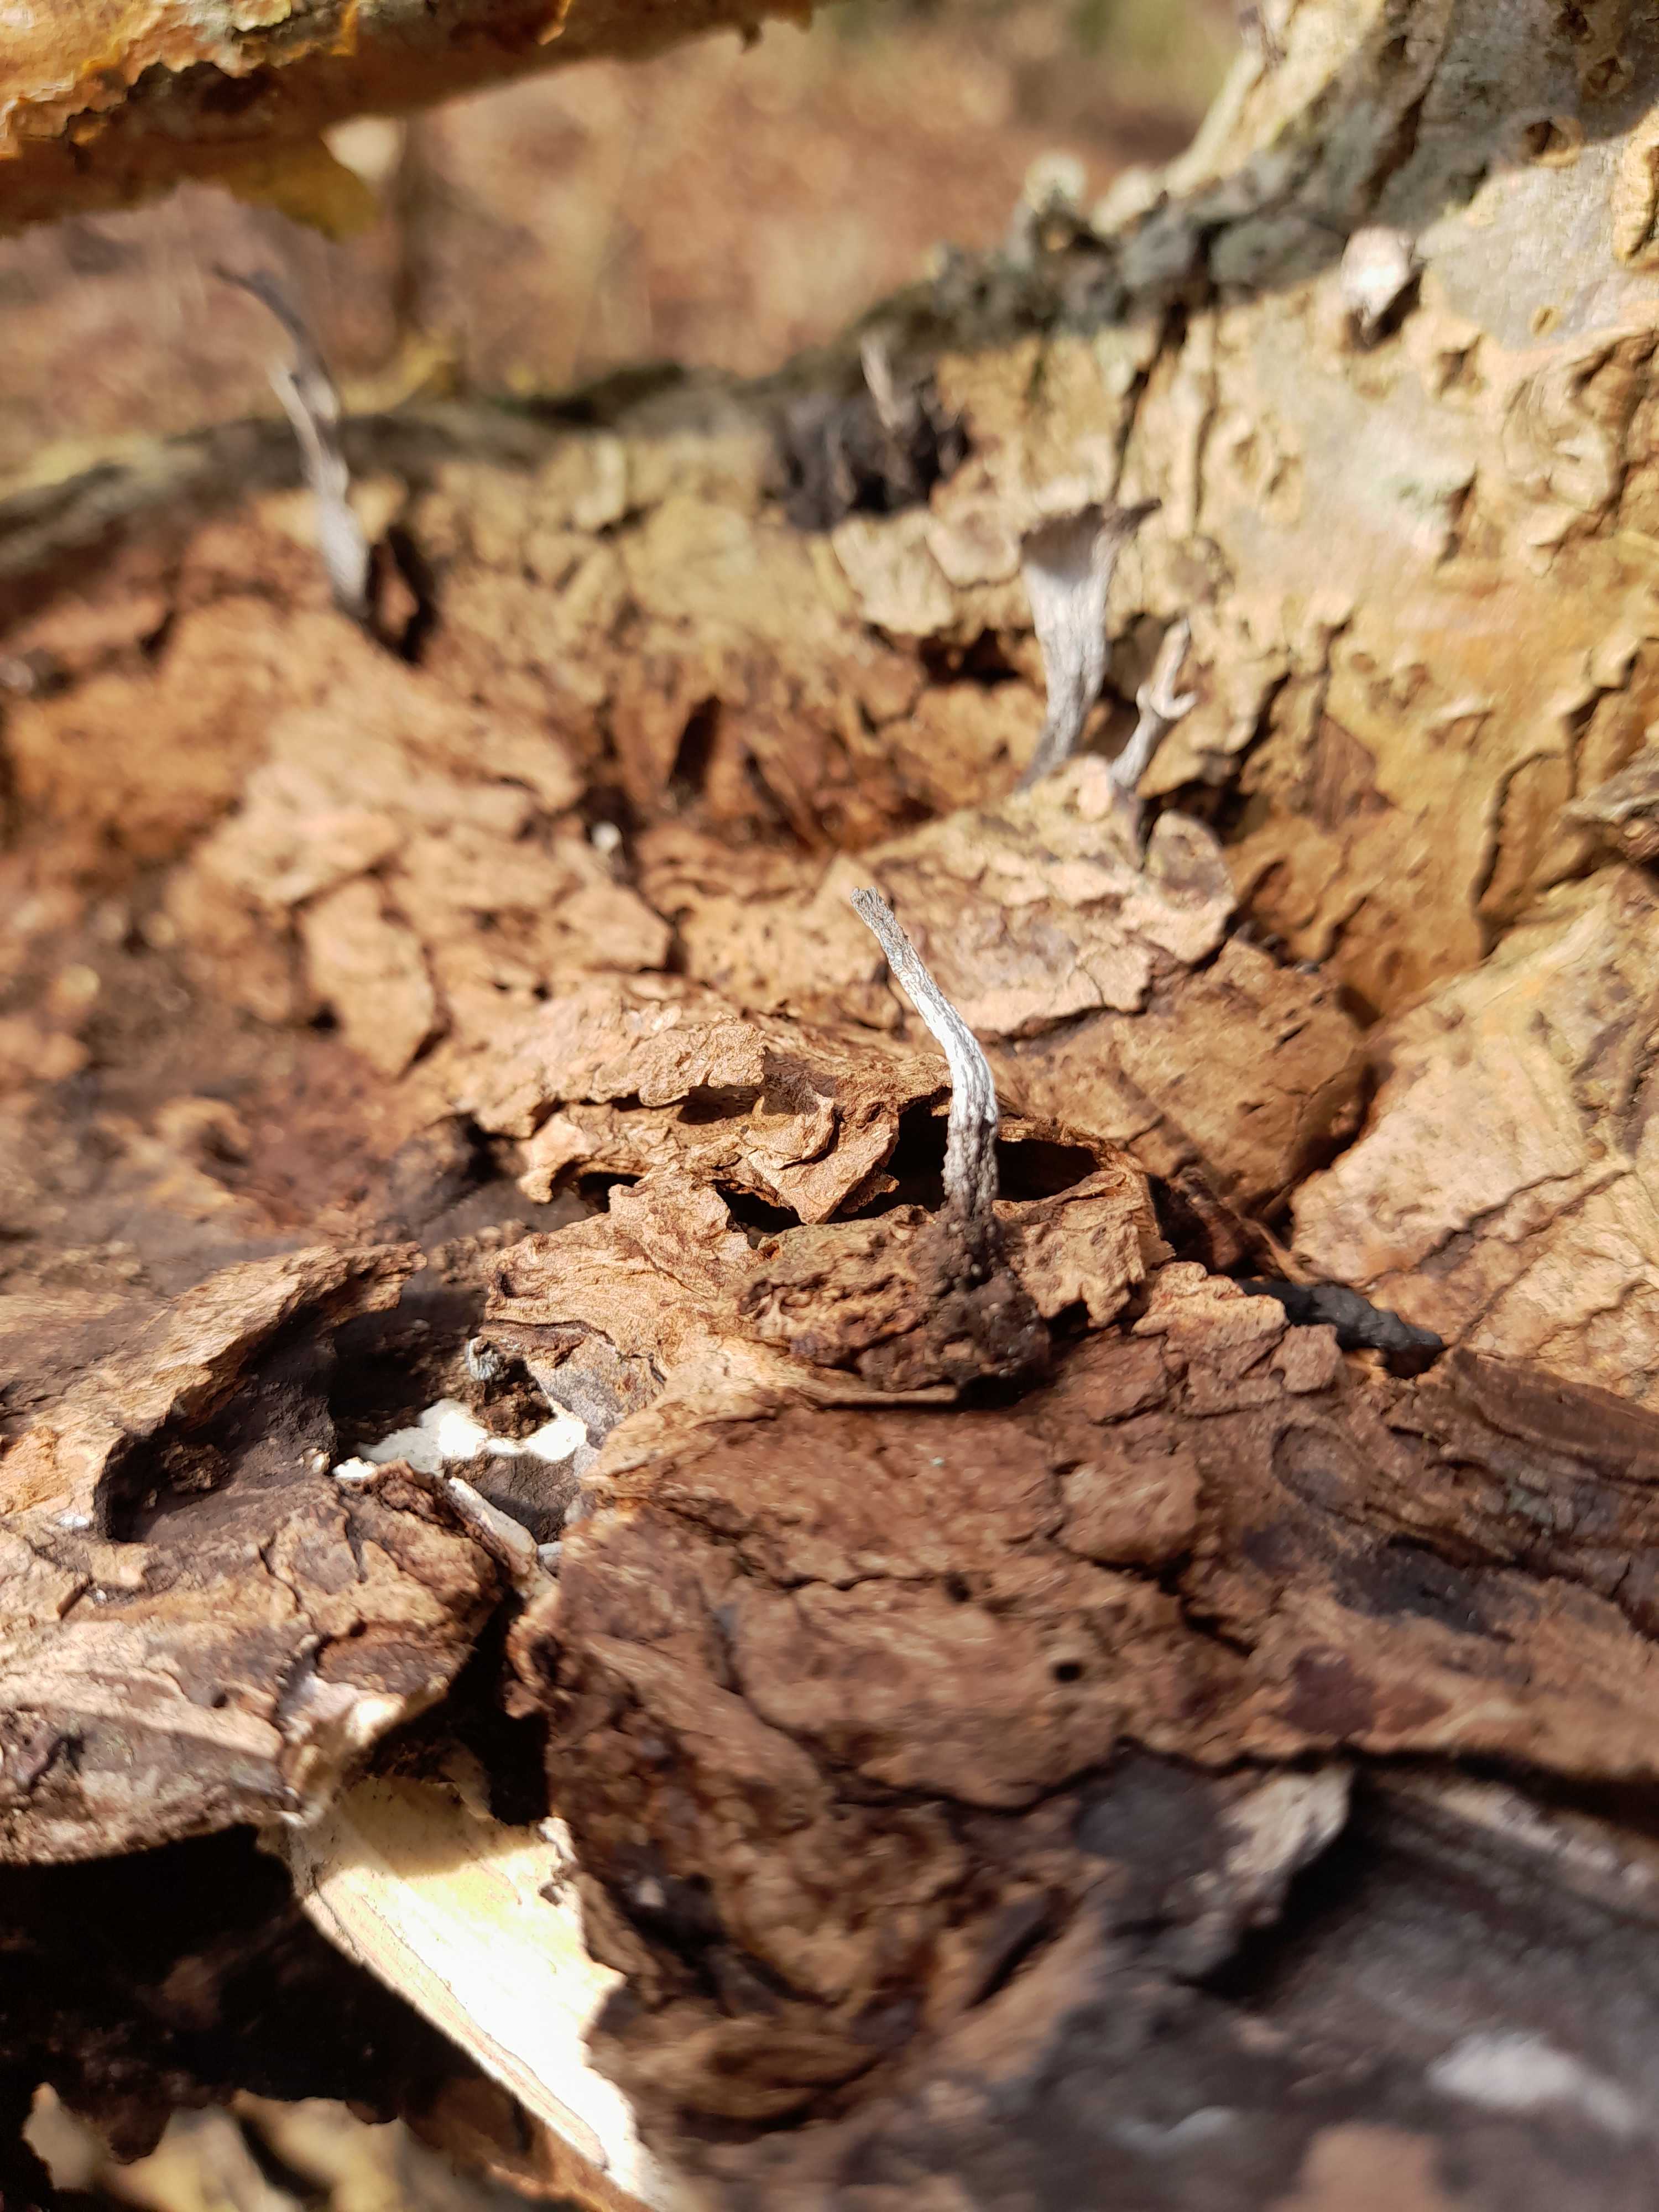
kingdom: Fungi
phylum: Ascomycota
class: Sordariomycetes
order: Xylariales
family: Xylariaceae
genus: Xylaria
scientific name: Xylaria hypoxylon
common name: grenet stødsvamp
